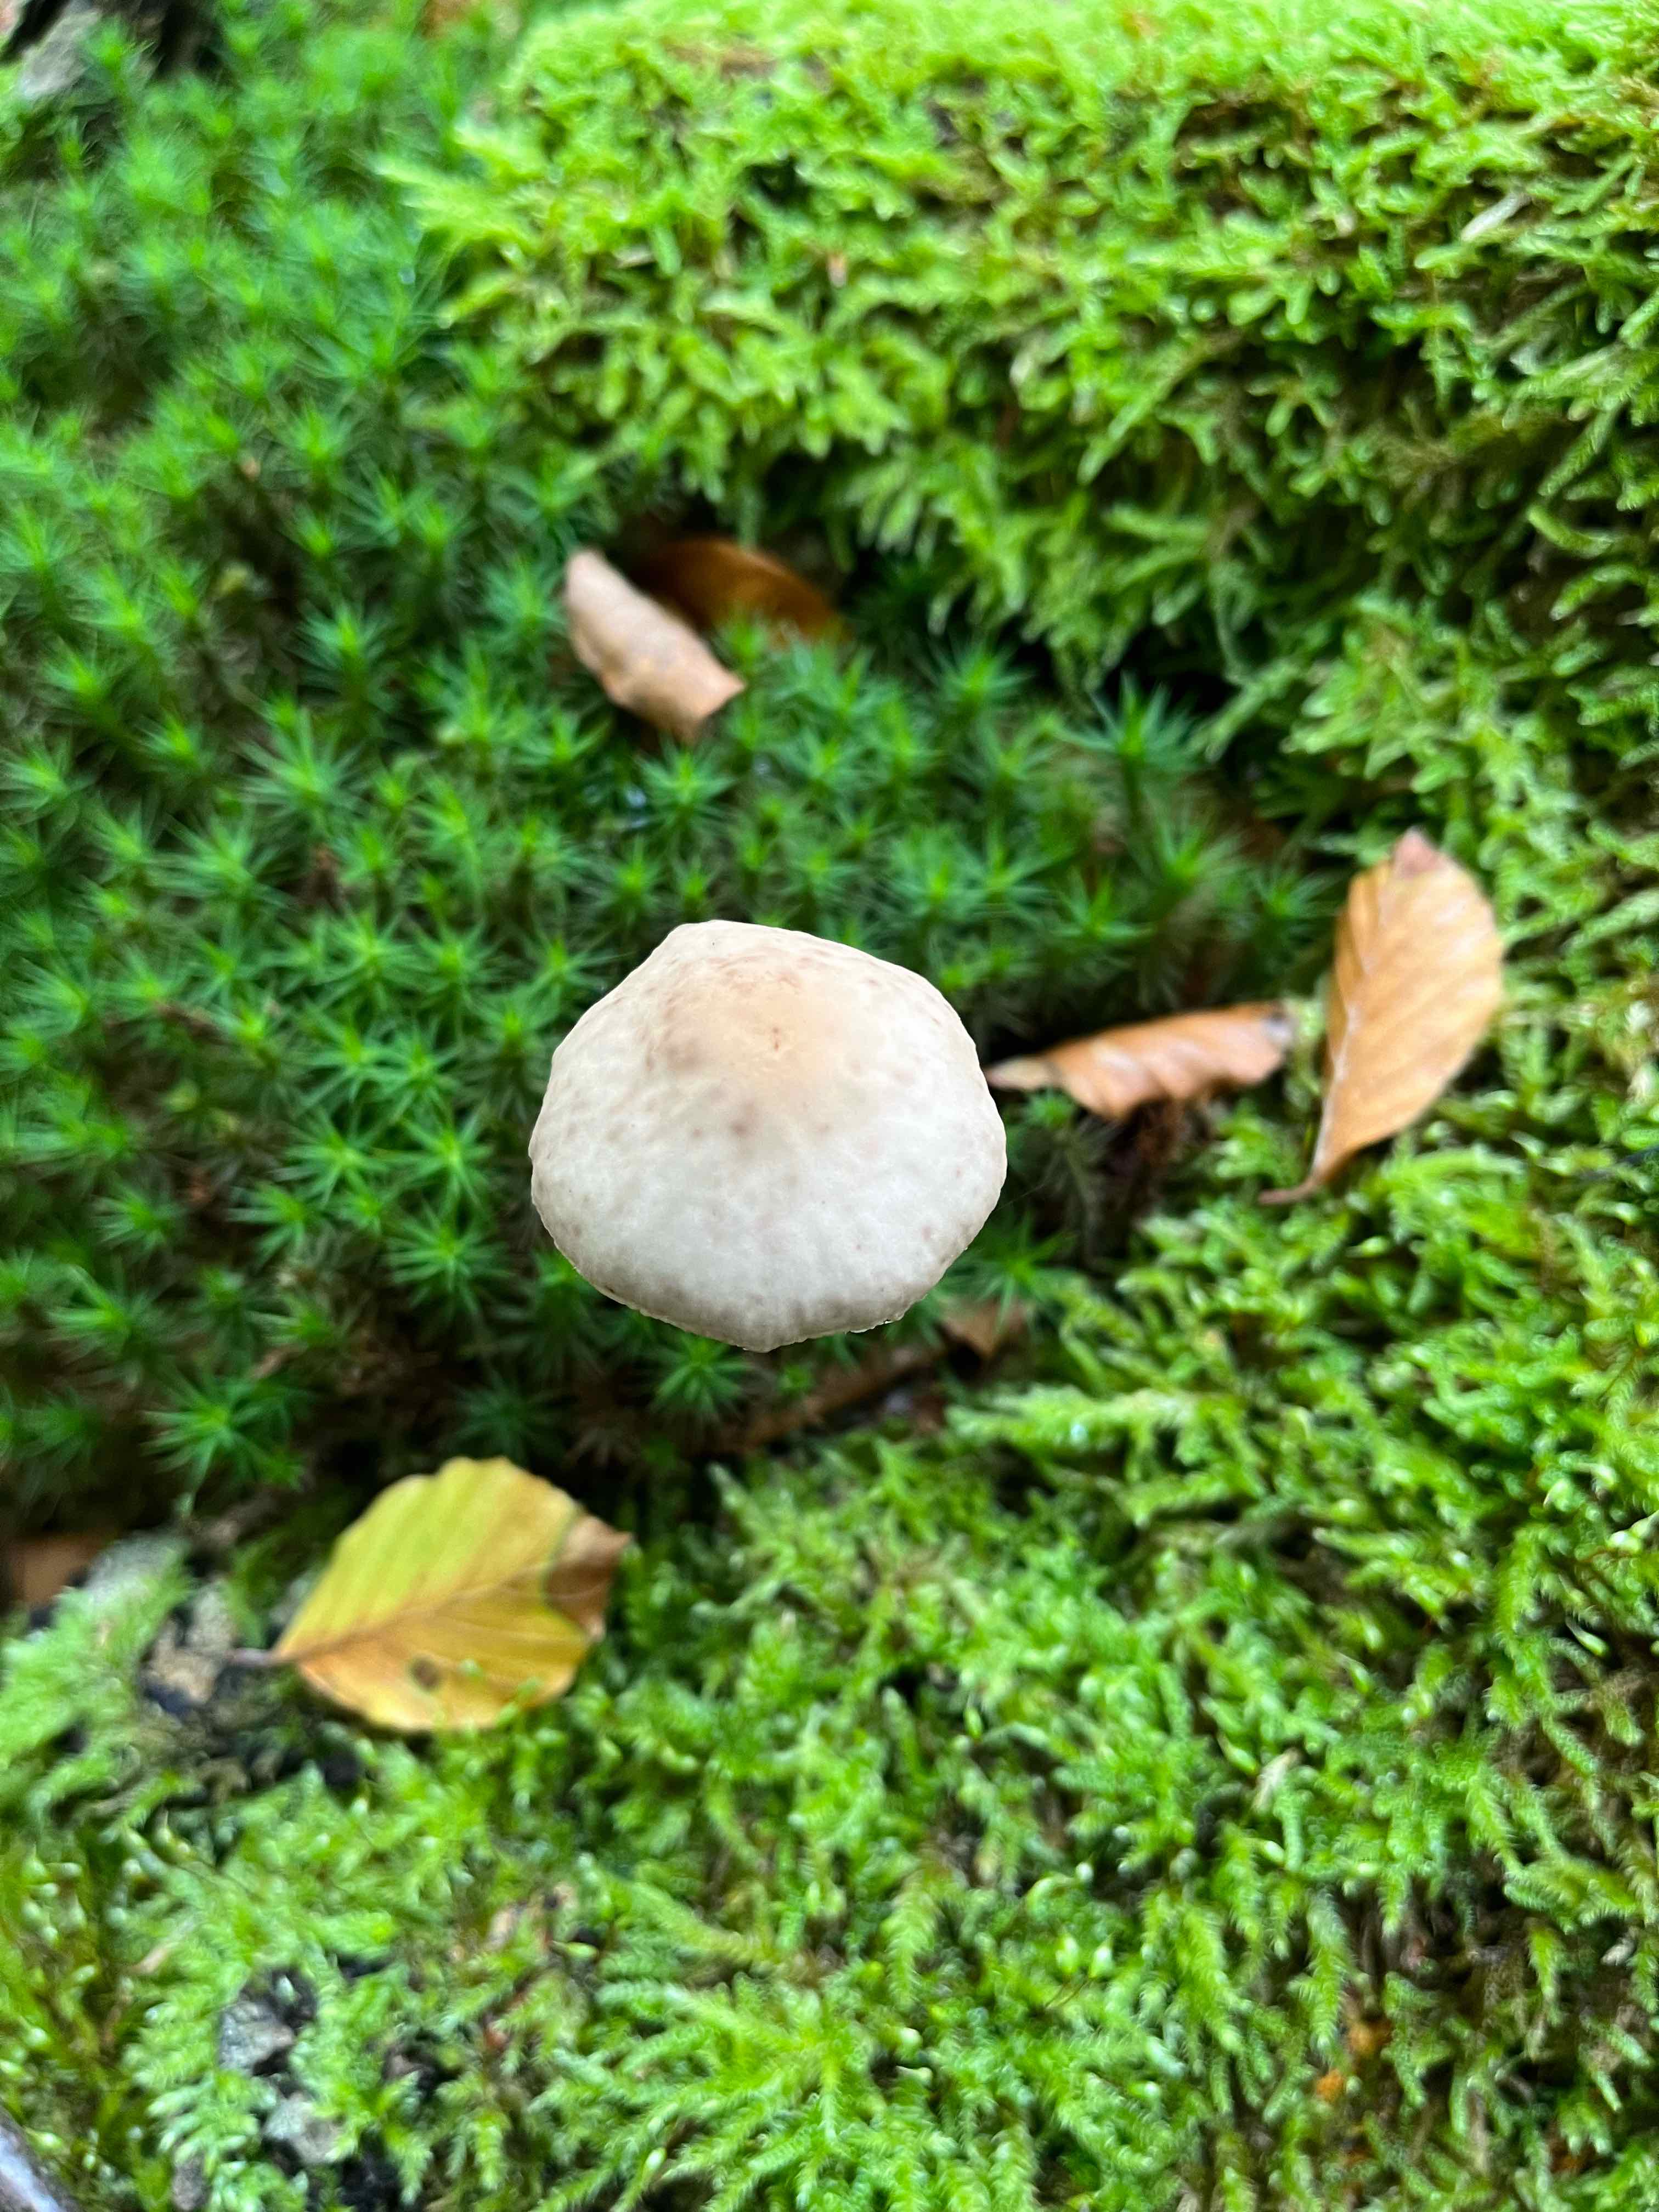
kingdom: Fungi
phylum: Basidiomycota
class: Agaricomycetes
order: Agaricales
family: Omphalotaceae
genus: Mycetinis
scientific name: Mycetinis alliaceus
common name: stor løghat
